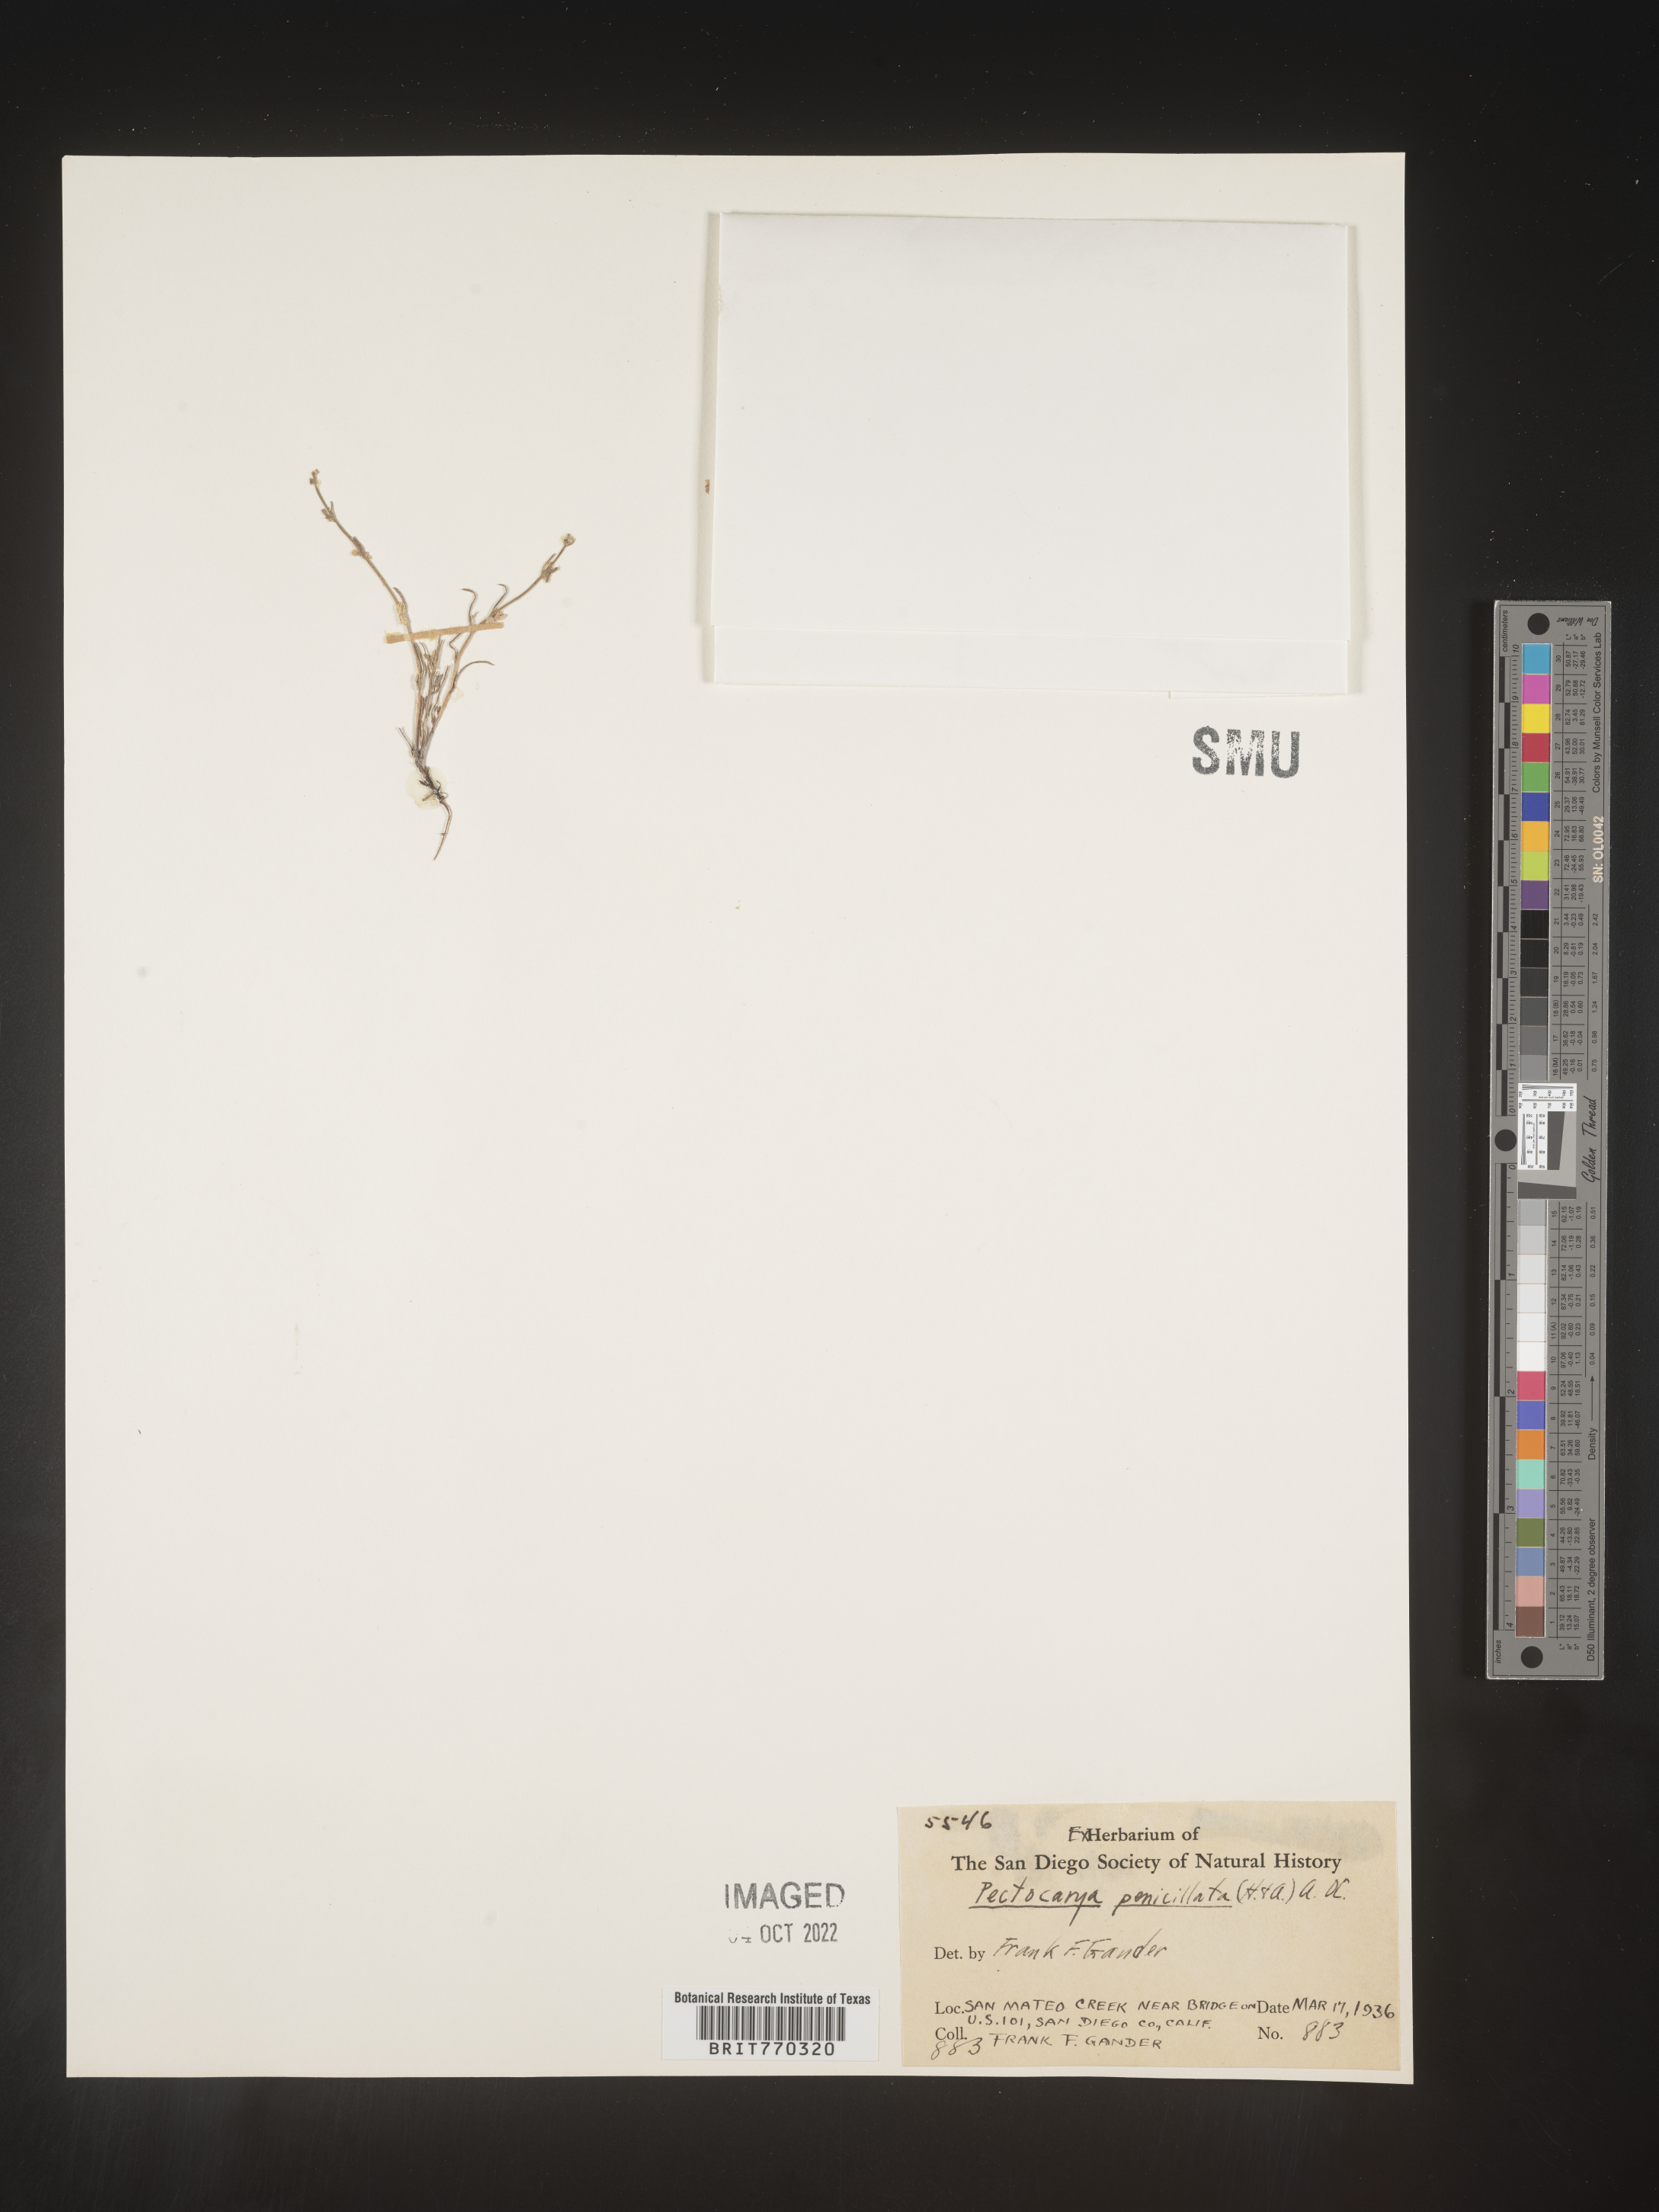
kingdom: Plantae
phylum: Tracheophyta
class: Magnoliopsida
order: Boraginales
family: Boraginaceae
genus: Pectocarya
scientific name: Pectocarya
